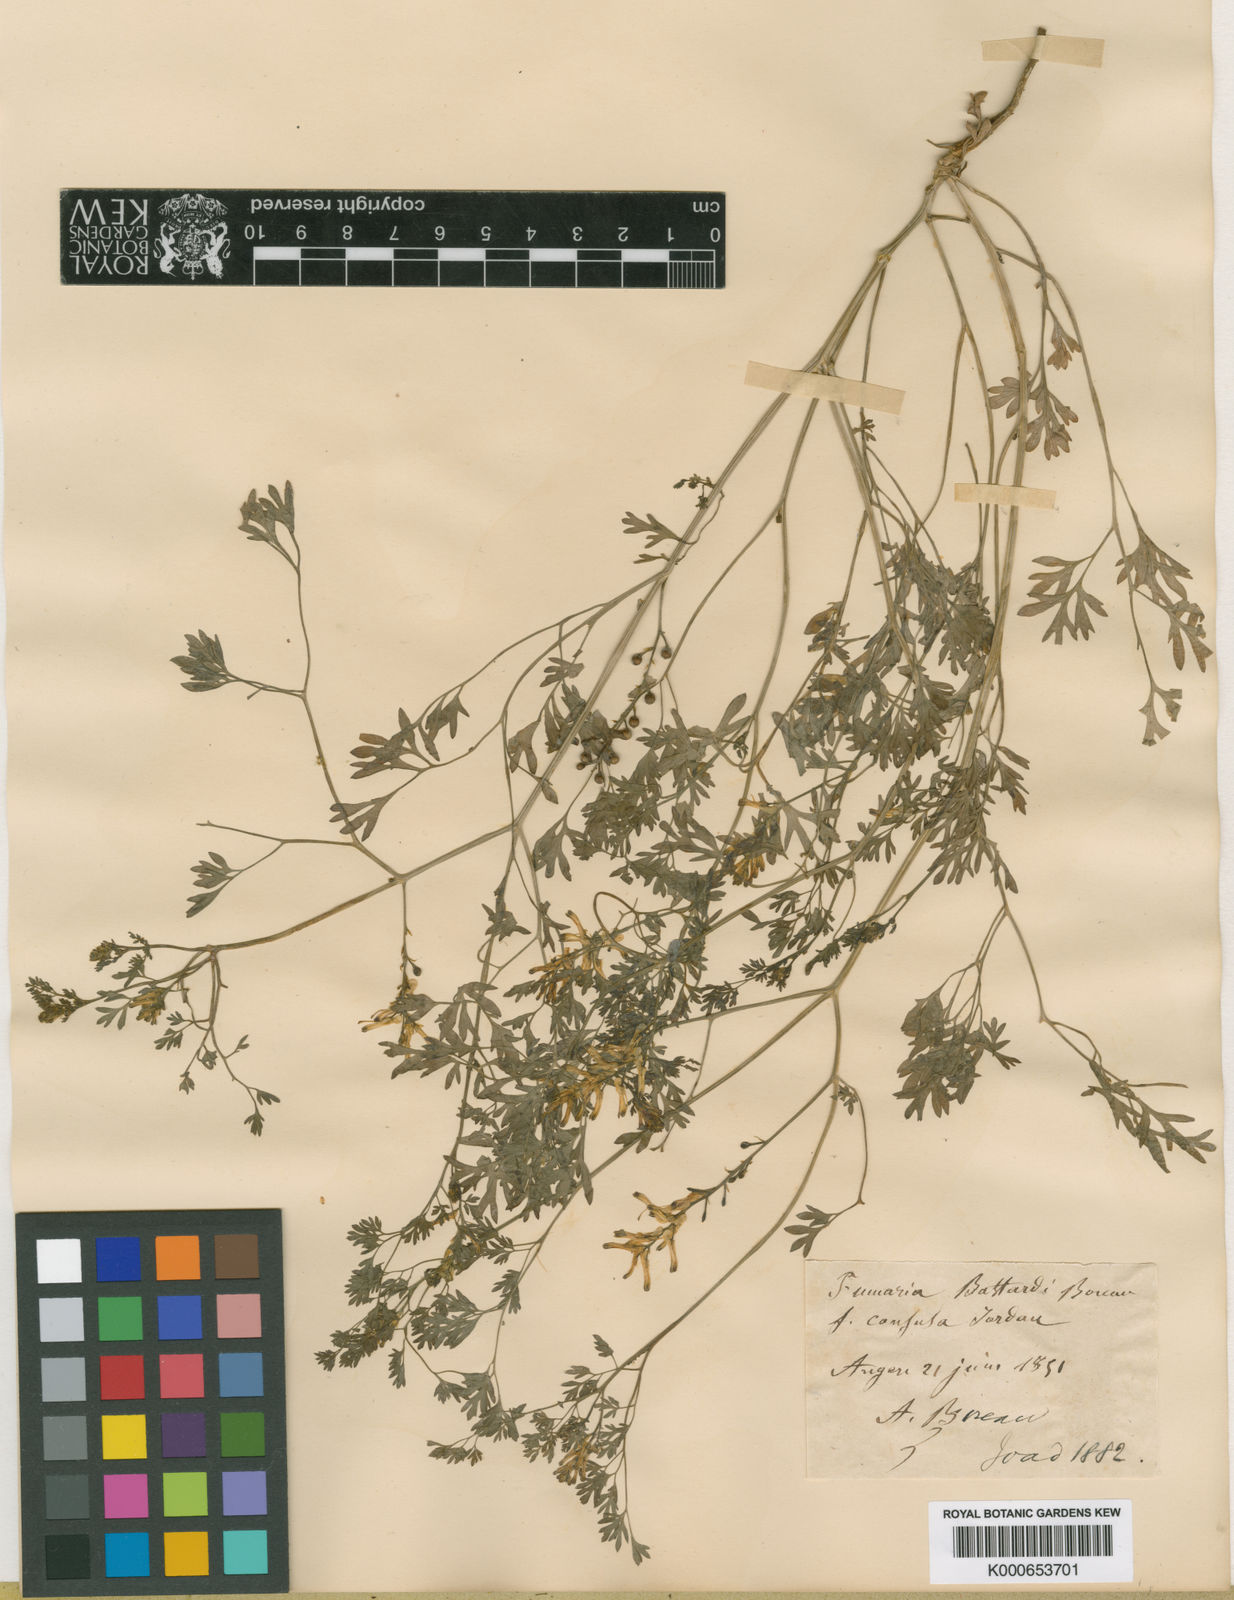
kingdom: Plantae
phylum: Tracheophyta
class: Magnoliopsida
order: Ranunculales
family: Papaveraceae
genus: Fumaria
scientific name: Fumaria bastardii
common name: Tall ramping-fumitory
